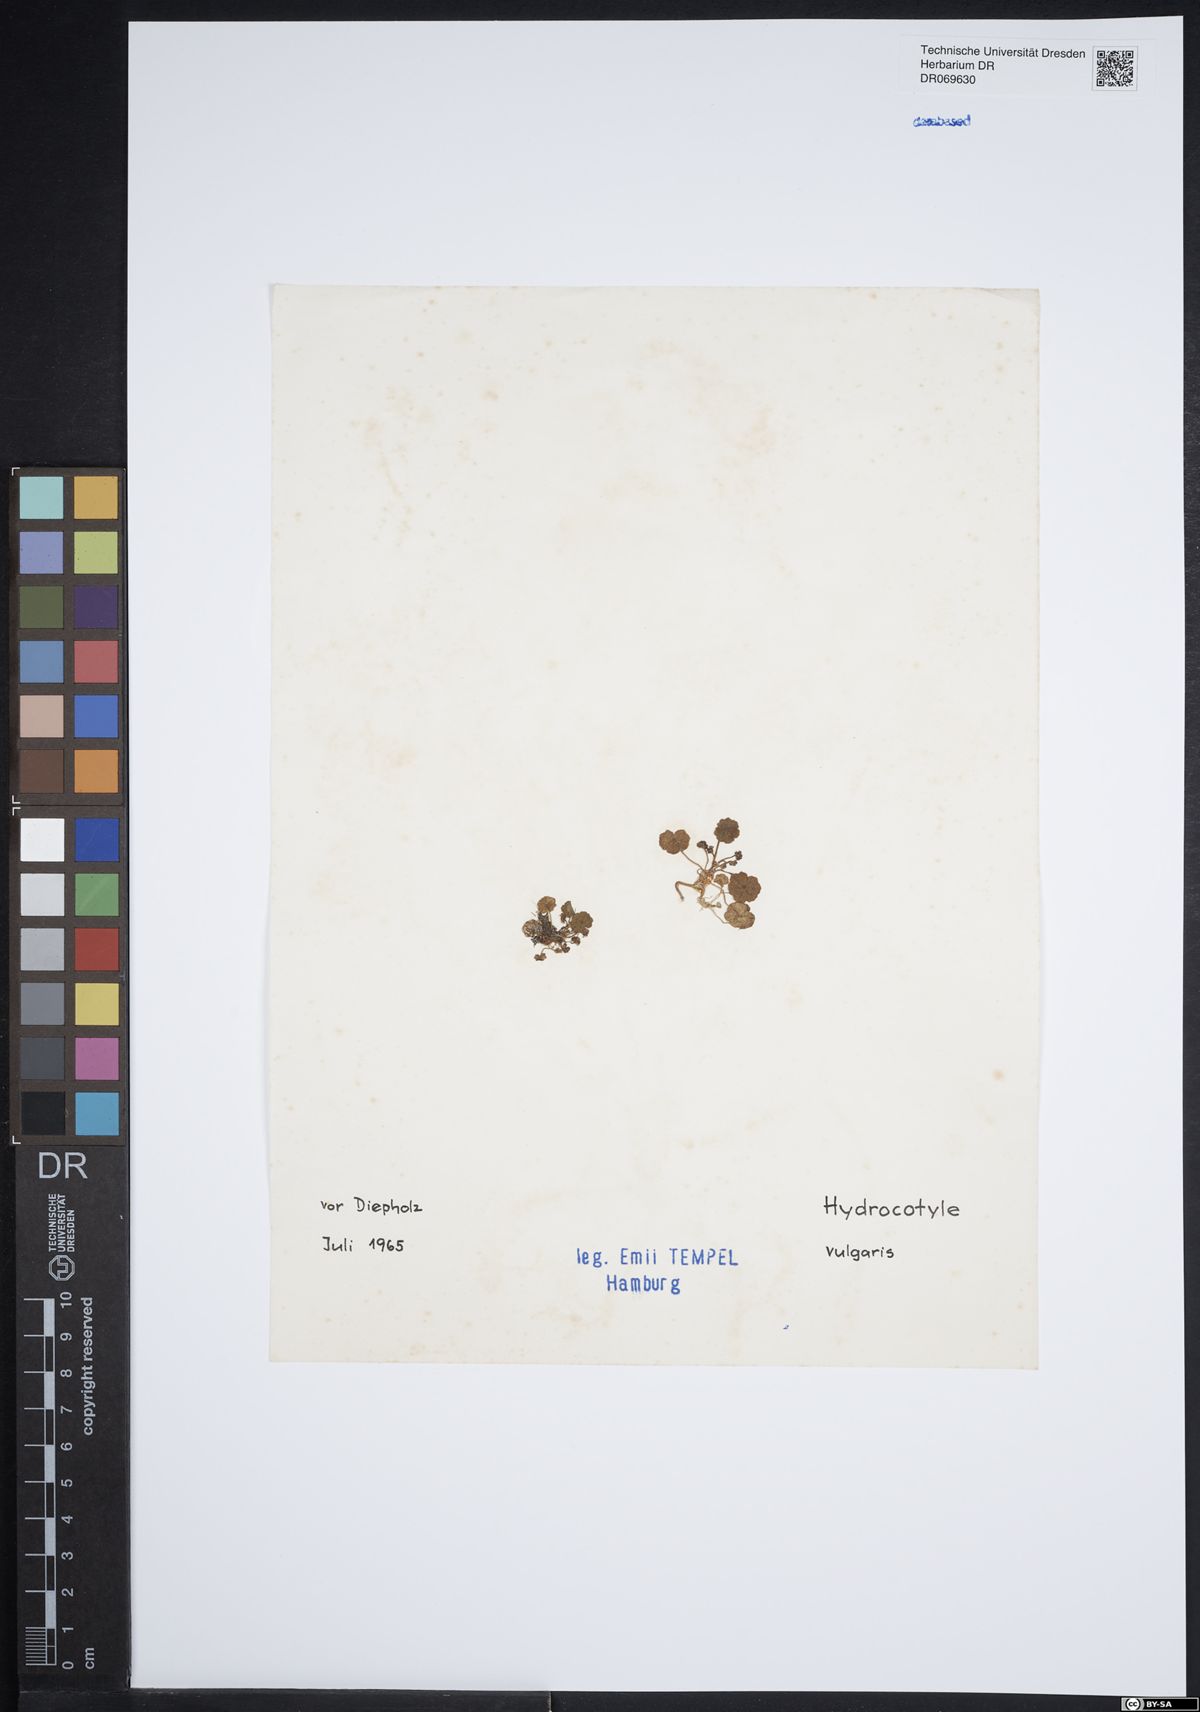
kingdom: Plantae
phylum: Tracheophyta
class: Magnoliopsida
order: Apiales
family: Araliaceae
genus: Hydrocotyle
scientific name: Hydrocotyle vulgaris
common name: Marsh pennywort
